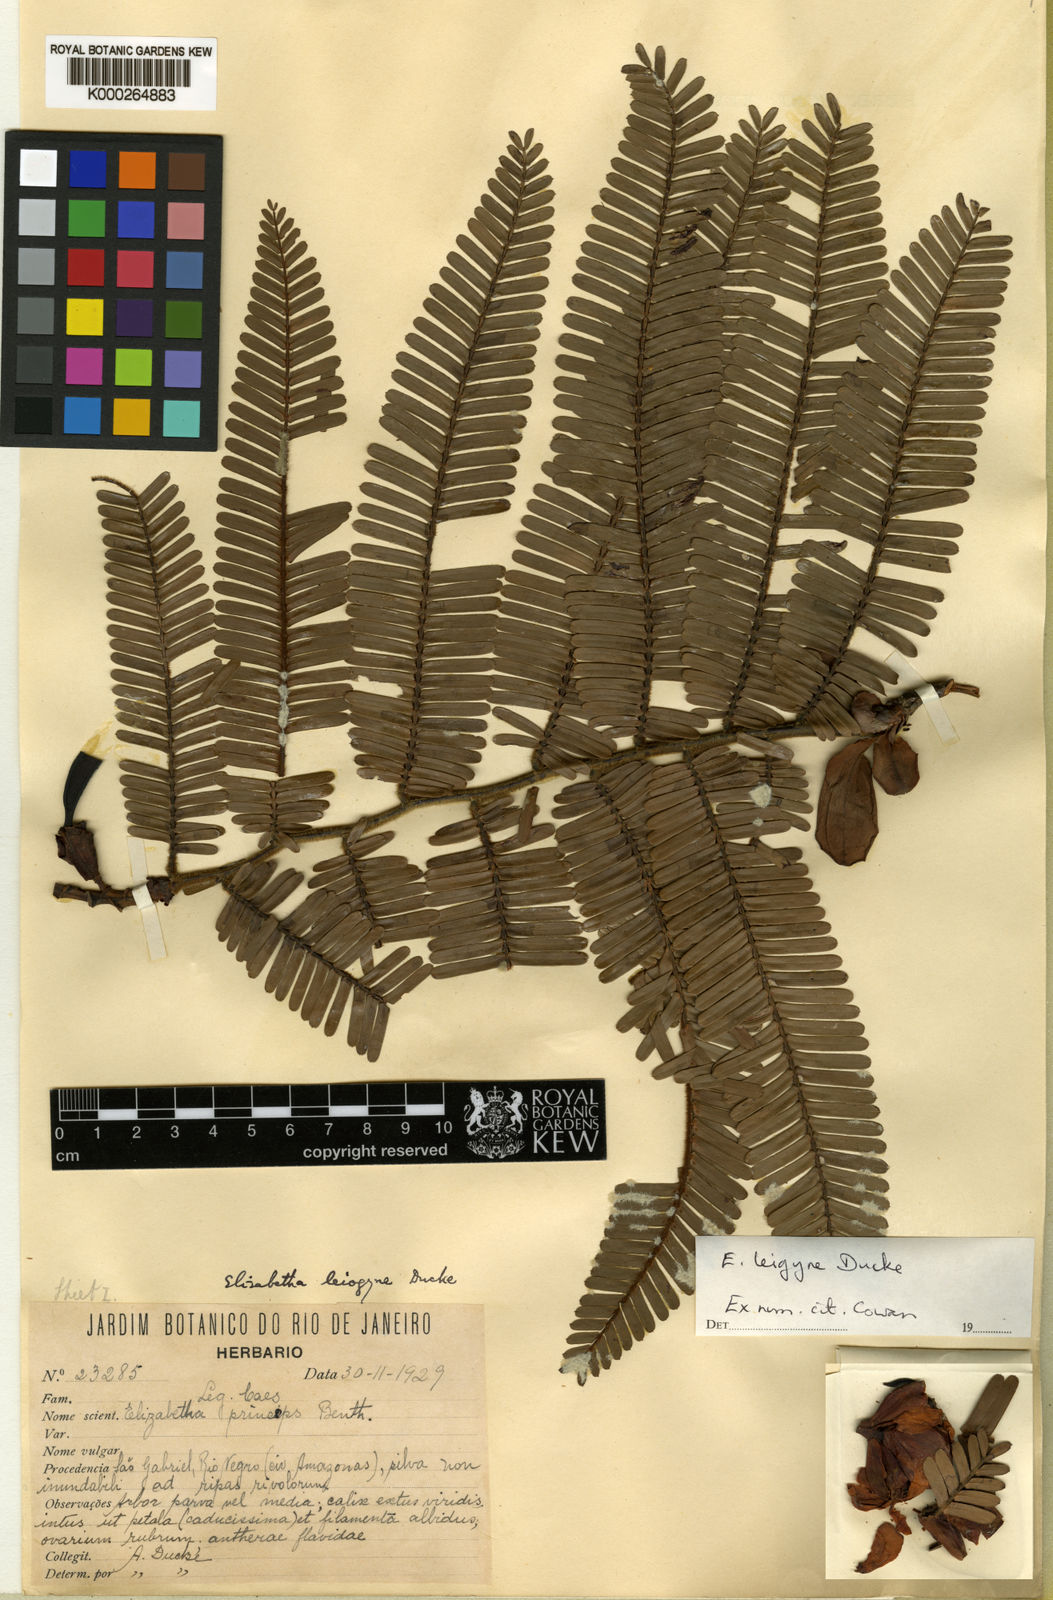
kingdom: Plantae
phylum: Tracheophyta
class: Magnoliopsida
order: Fabales
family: Fabaceae
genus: Paloue
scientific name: Paloue leiogyne
